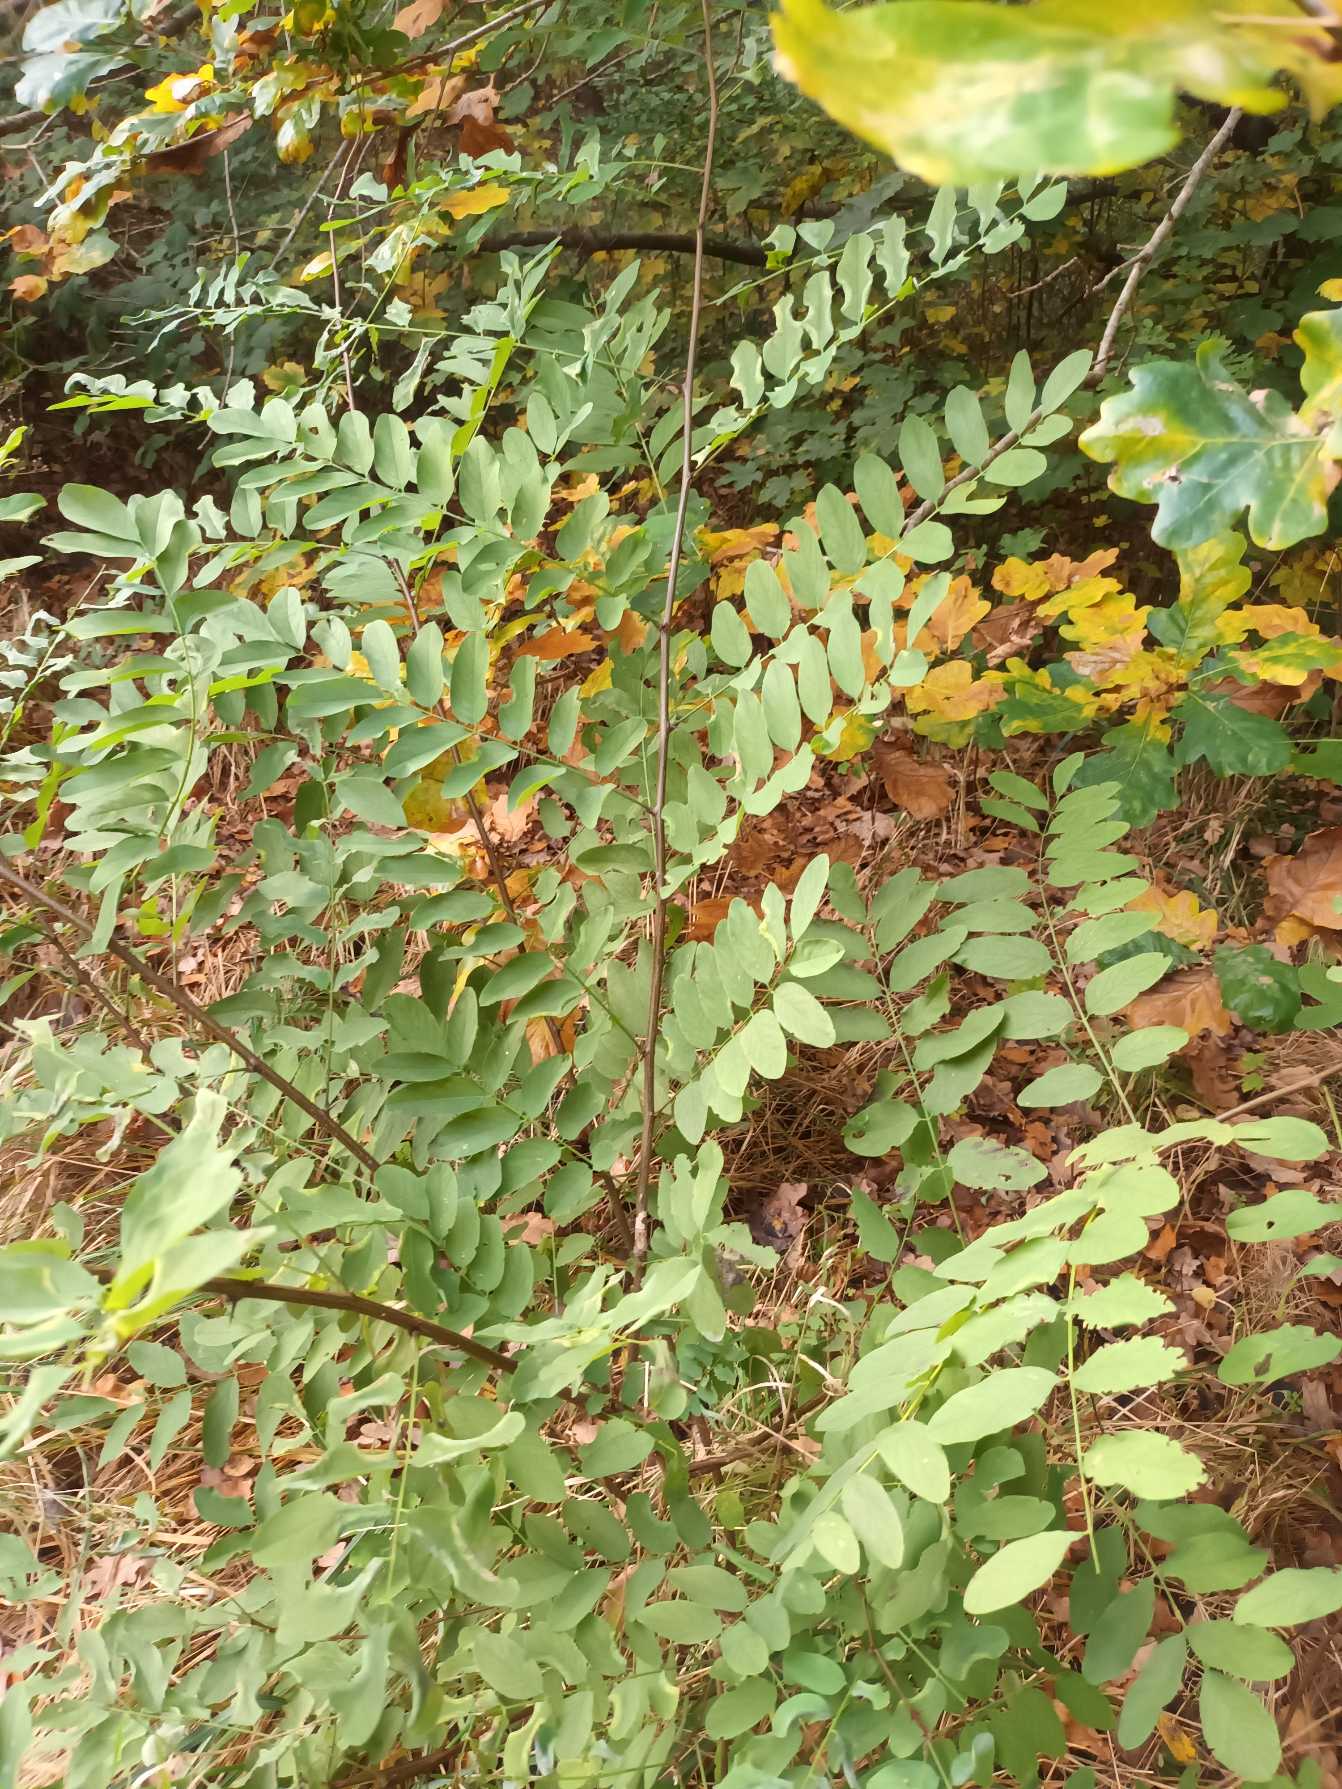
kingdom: Plantae
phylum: Tracheophyta
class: Magnoliopsida
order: Fabales
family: Fabaceae
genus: Robinia
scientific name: Robinia pseudoacacia
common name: Robinie
